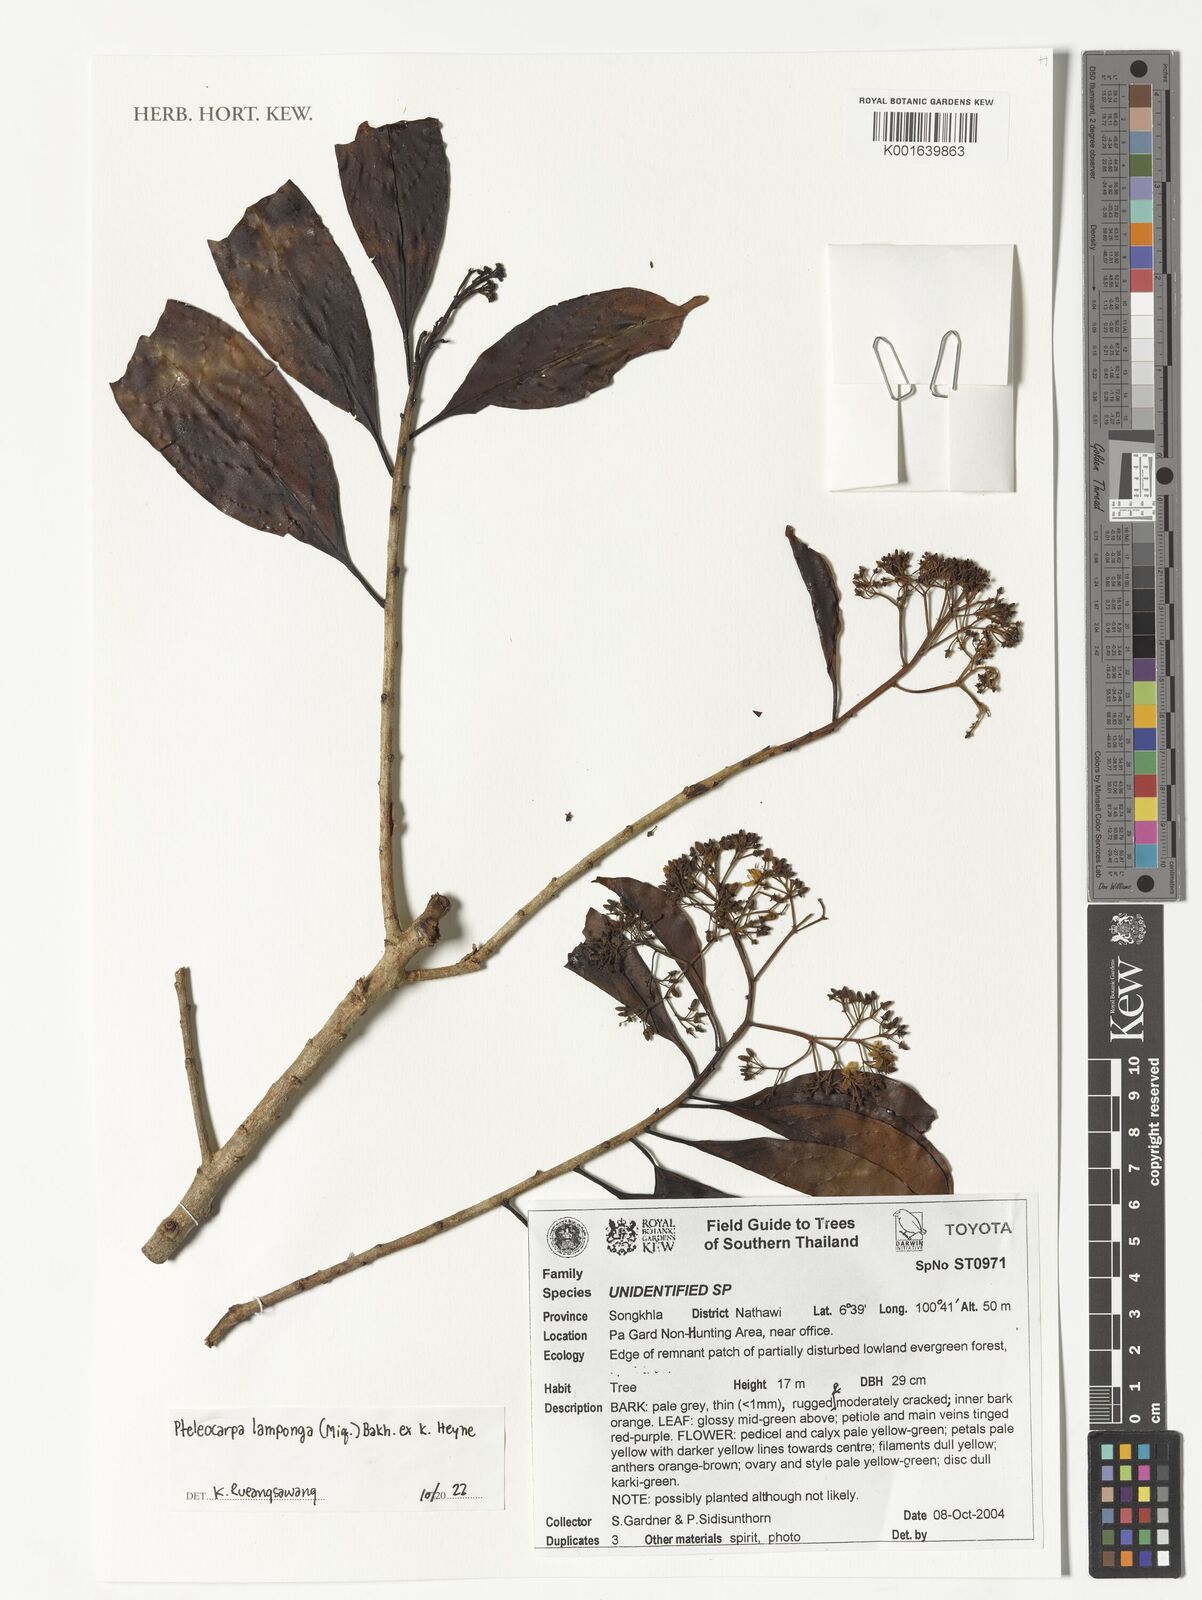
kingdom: Plantae
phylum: Tracheophyta
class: Magnoliopsida
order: Gentianales
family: Gelsemiaceae
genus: Pteleocarpa
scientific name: Pteleocarpa lamponga
